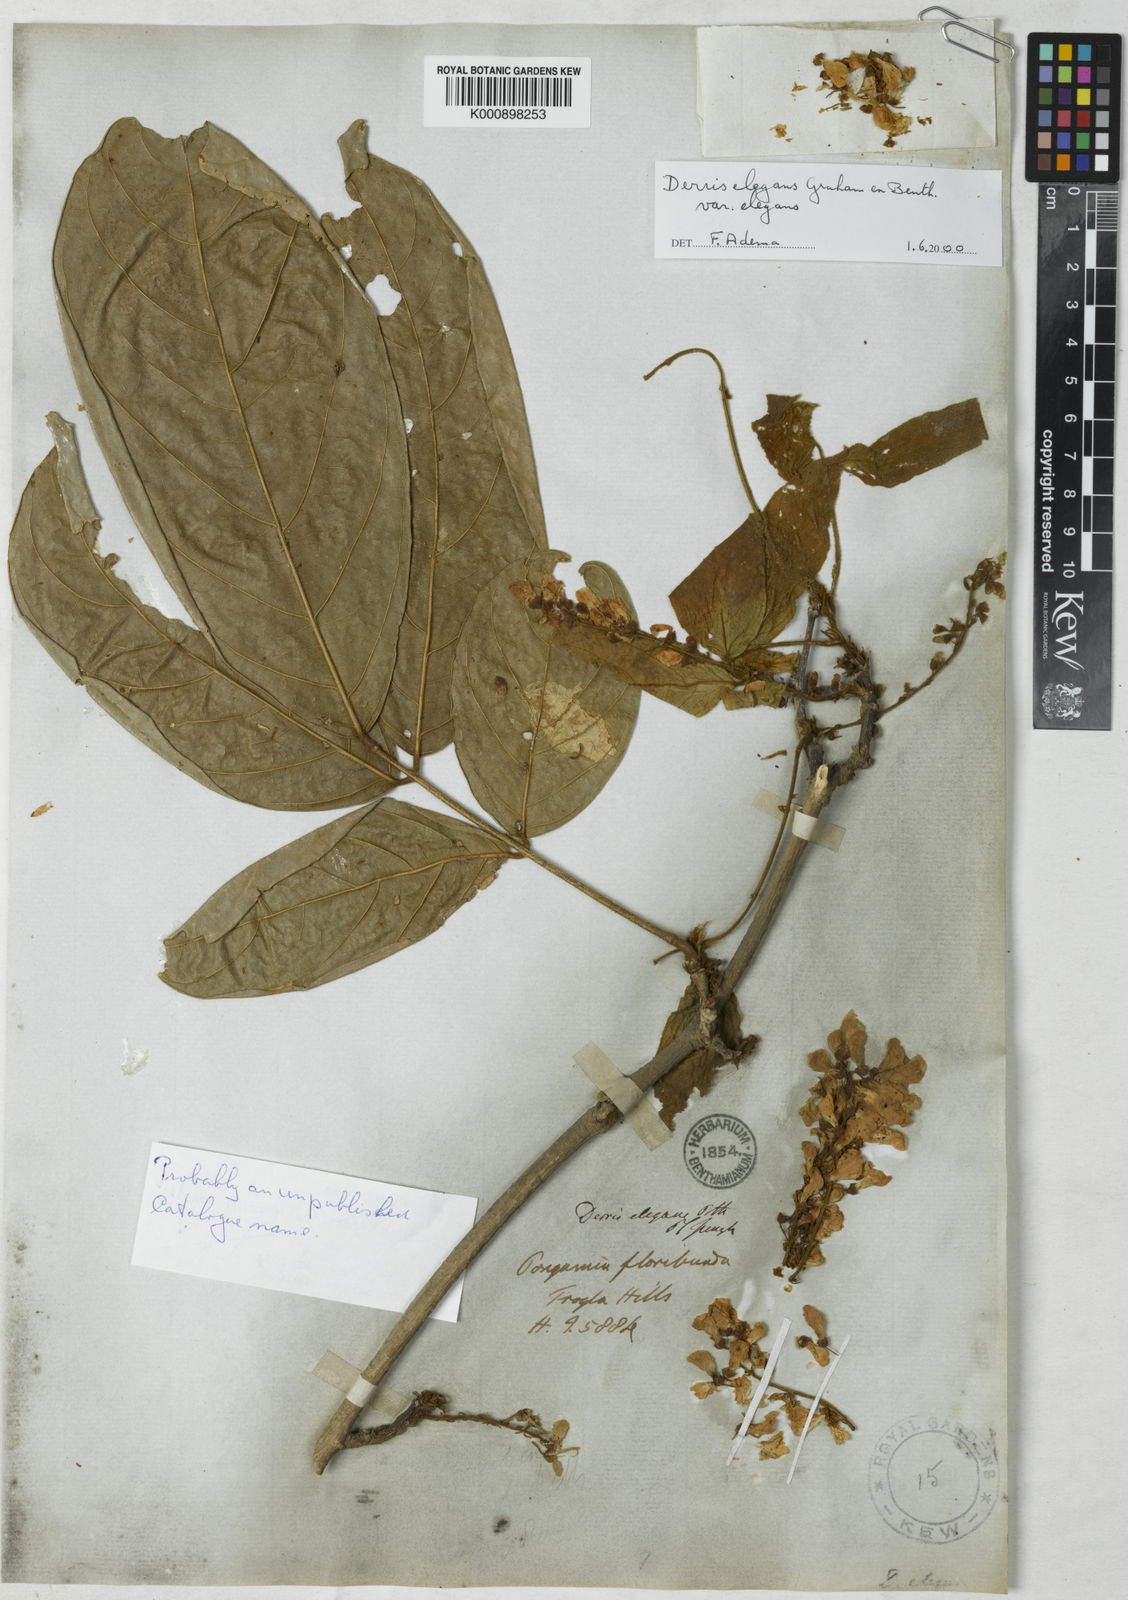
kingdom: Plantae
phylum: Tracheophyta
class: Magnoliopsida
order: Fabales
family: Fabaceae
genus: Derris
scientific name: Derris elegans
